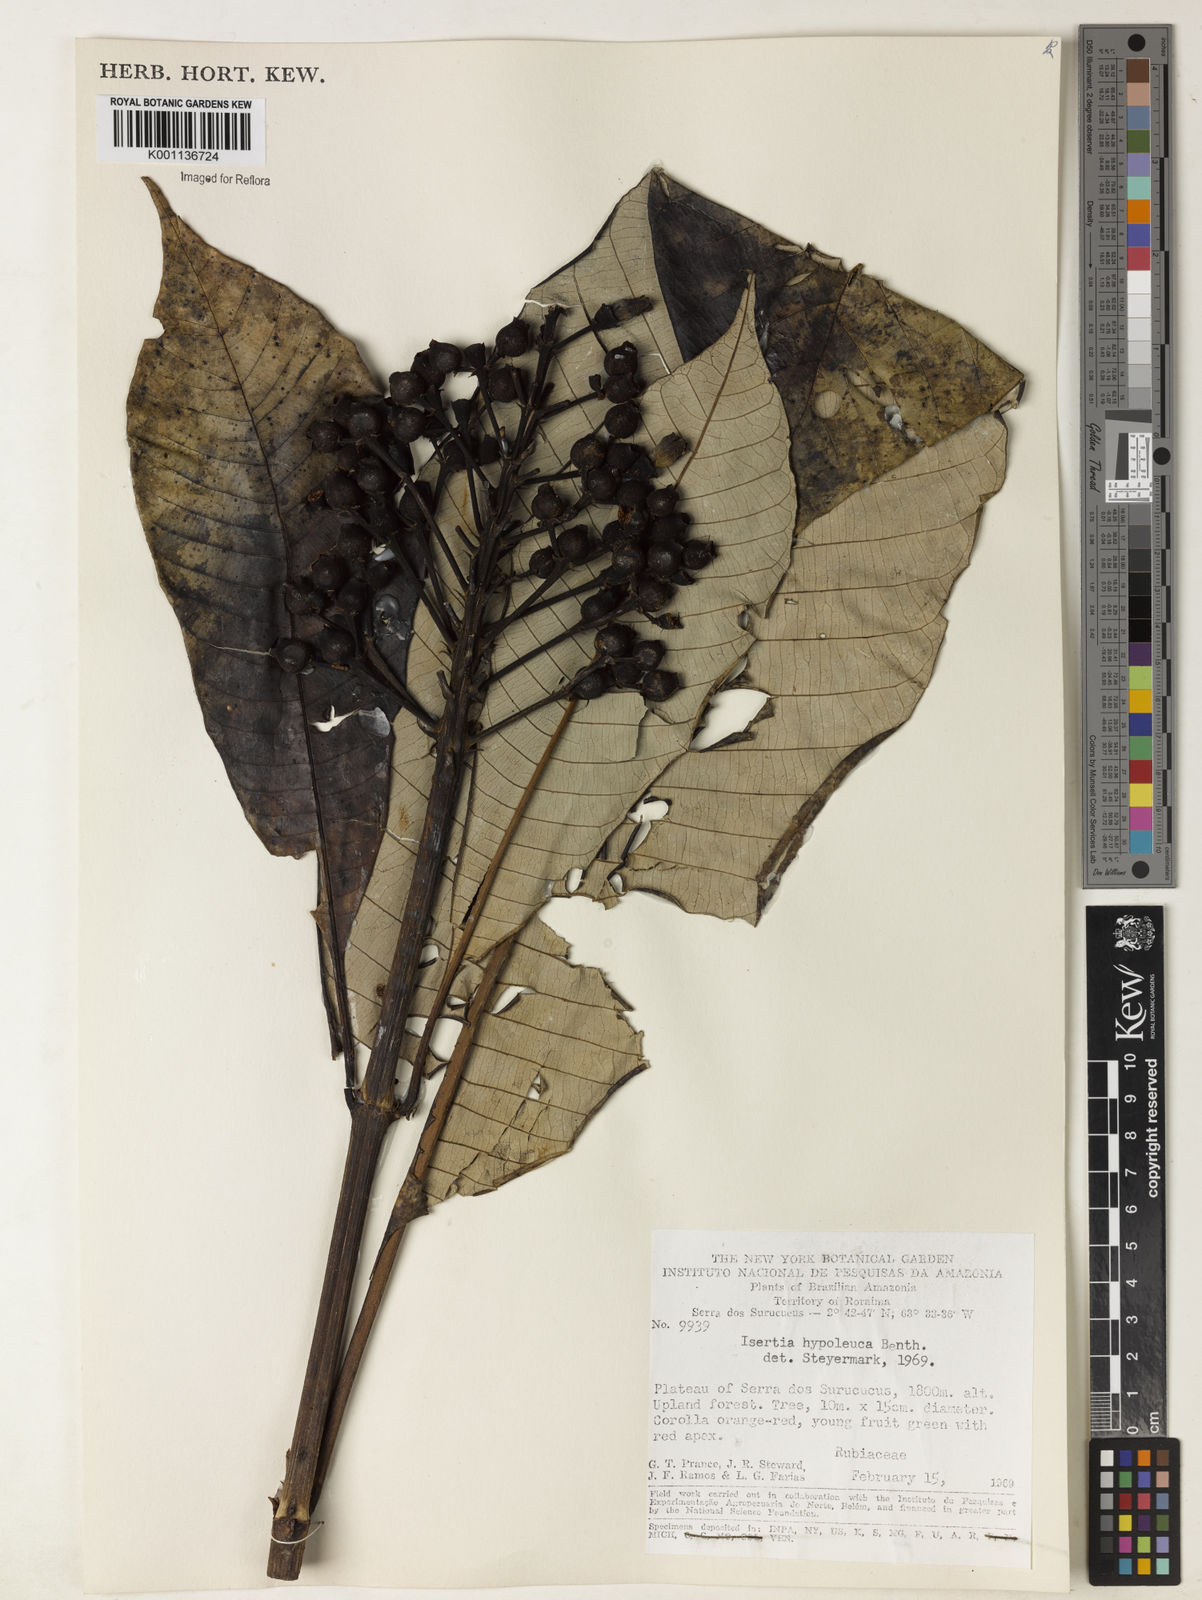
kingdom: Plantae
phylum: Tracheophyta
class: Magnoliopsida
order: Gentianales
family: Rubiaceae
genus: Isertia
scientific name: Isertia hypoleuca
